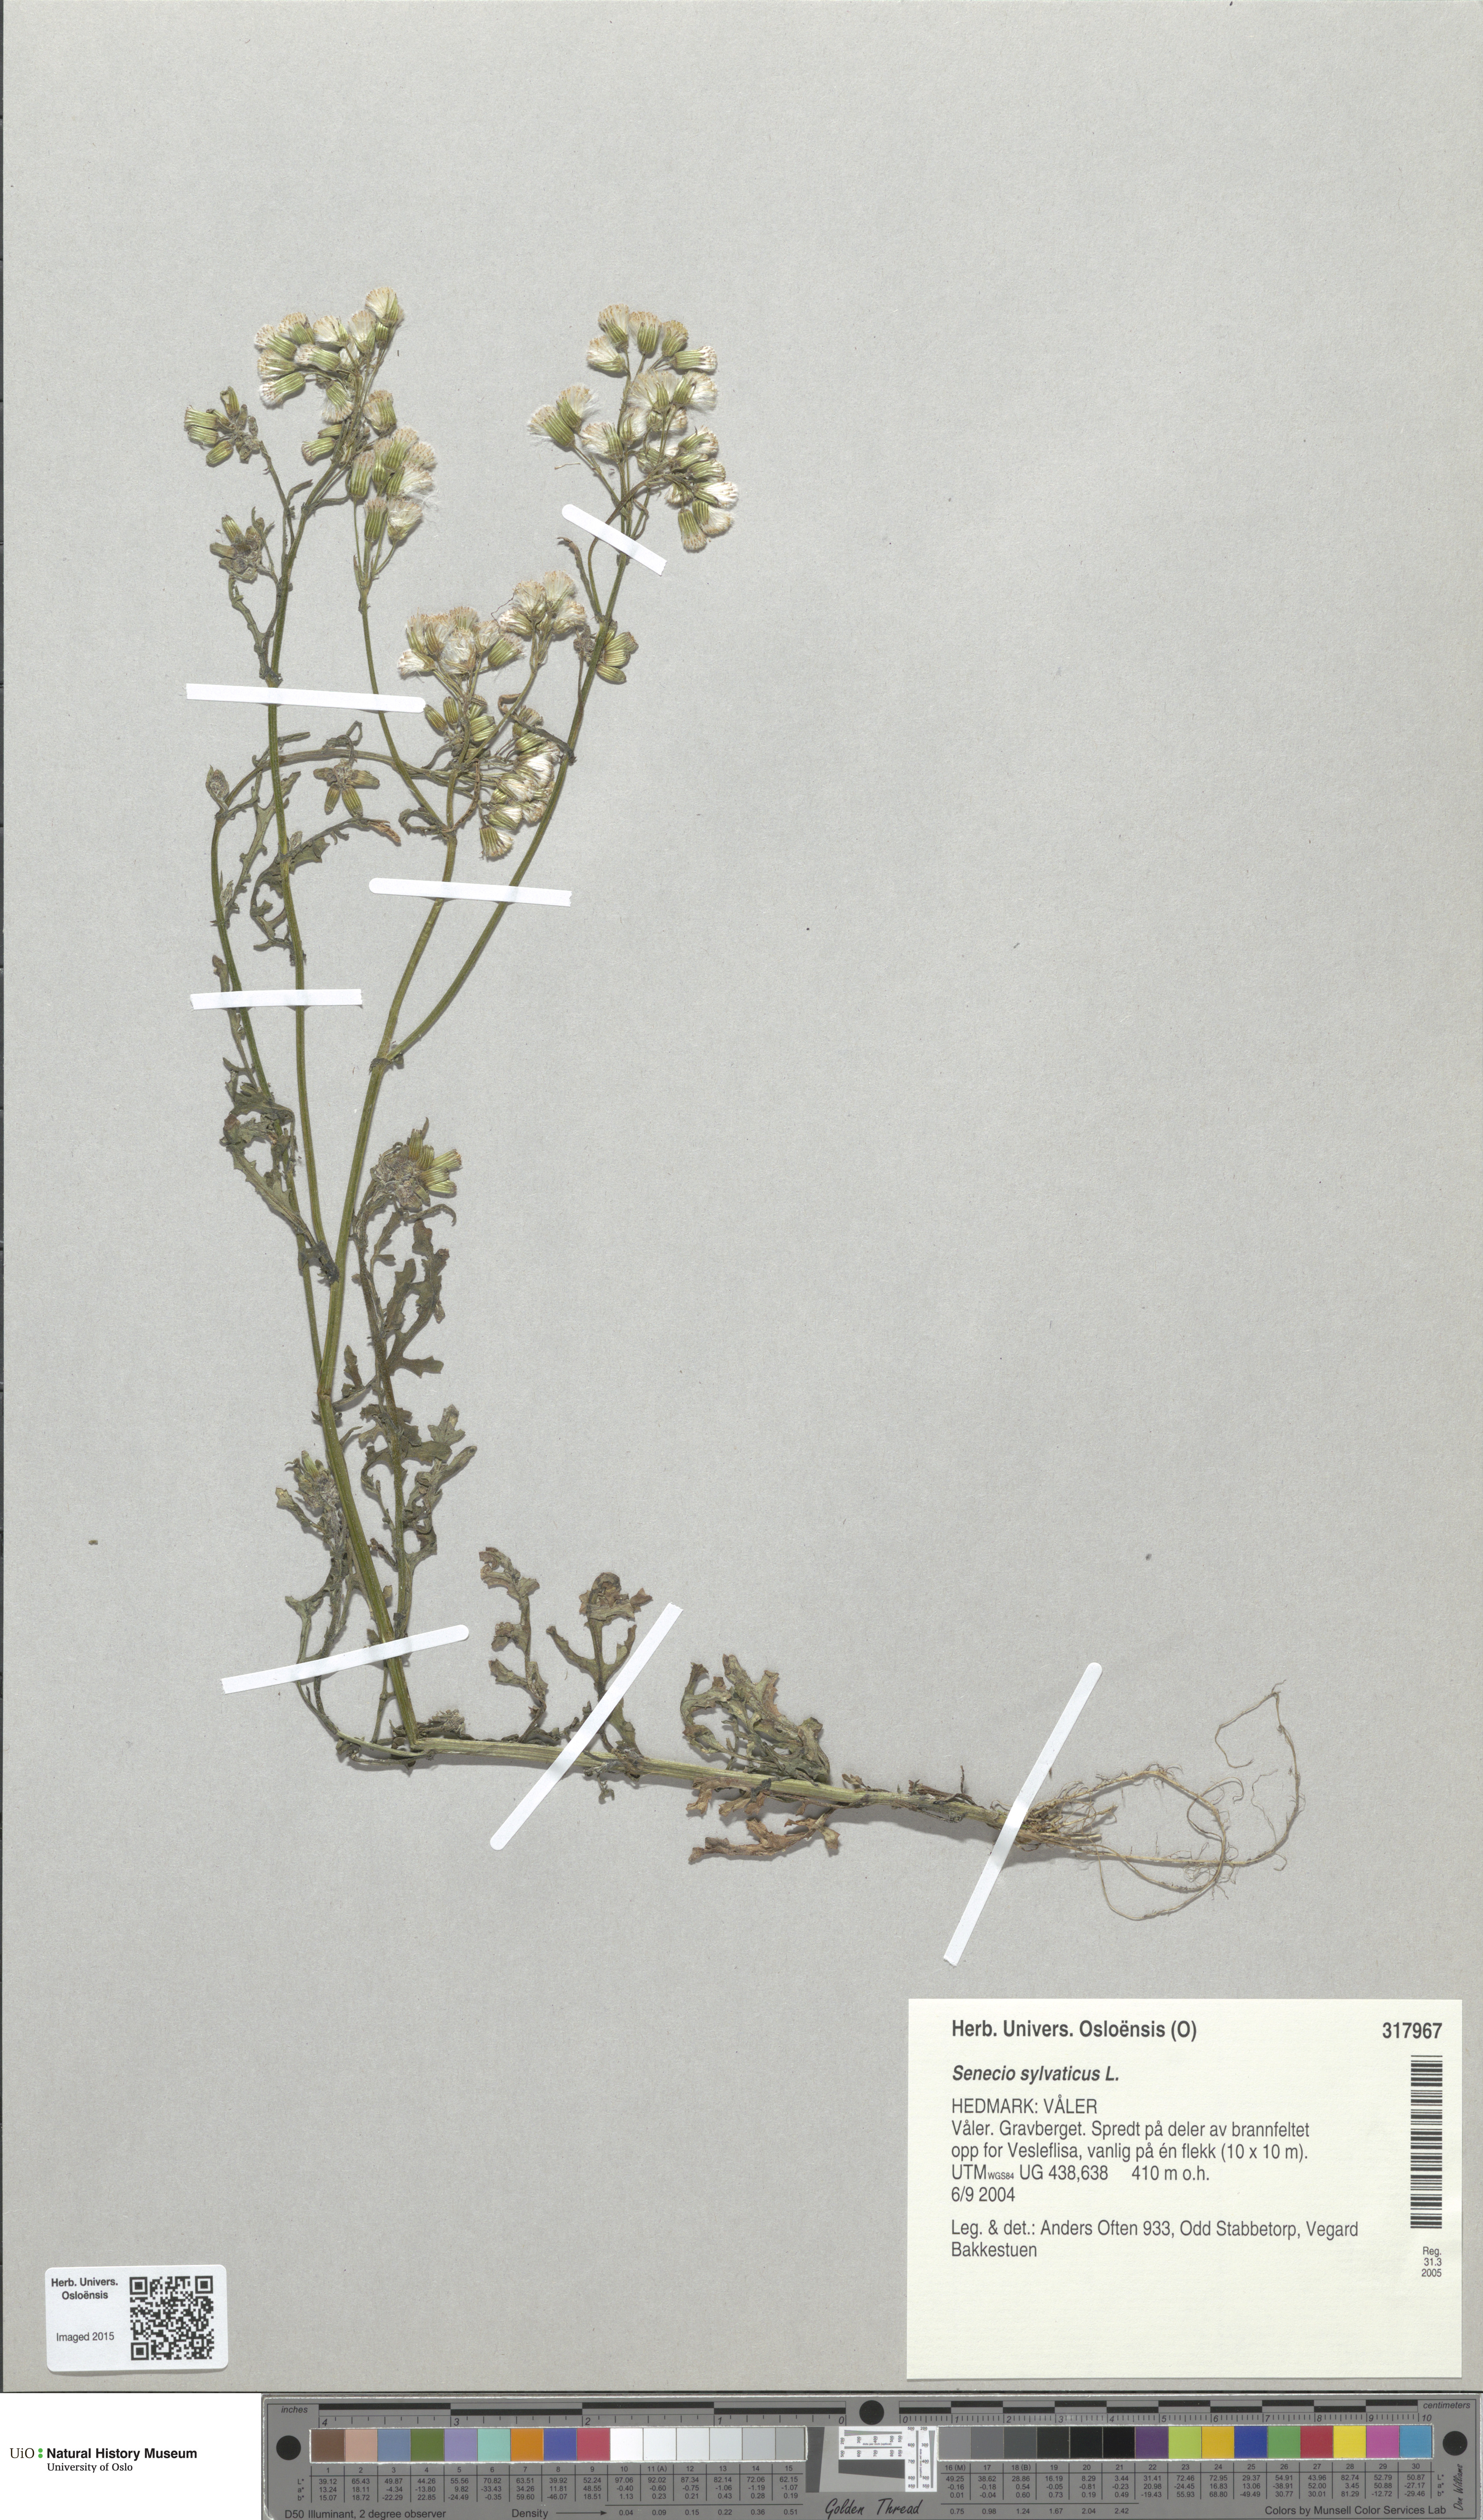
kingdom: Plantae
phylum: Tracheophyta
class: Magnoliopsida
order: Asterales
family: Asteraceae
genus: Senecio
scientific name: Senecio sylvaticus
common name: Woodland ragwort
